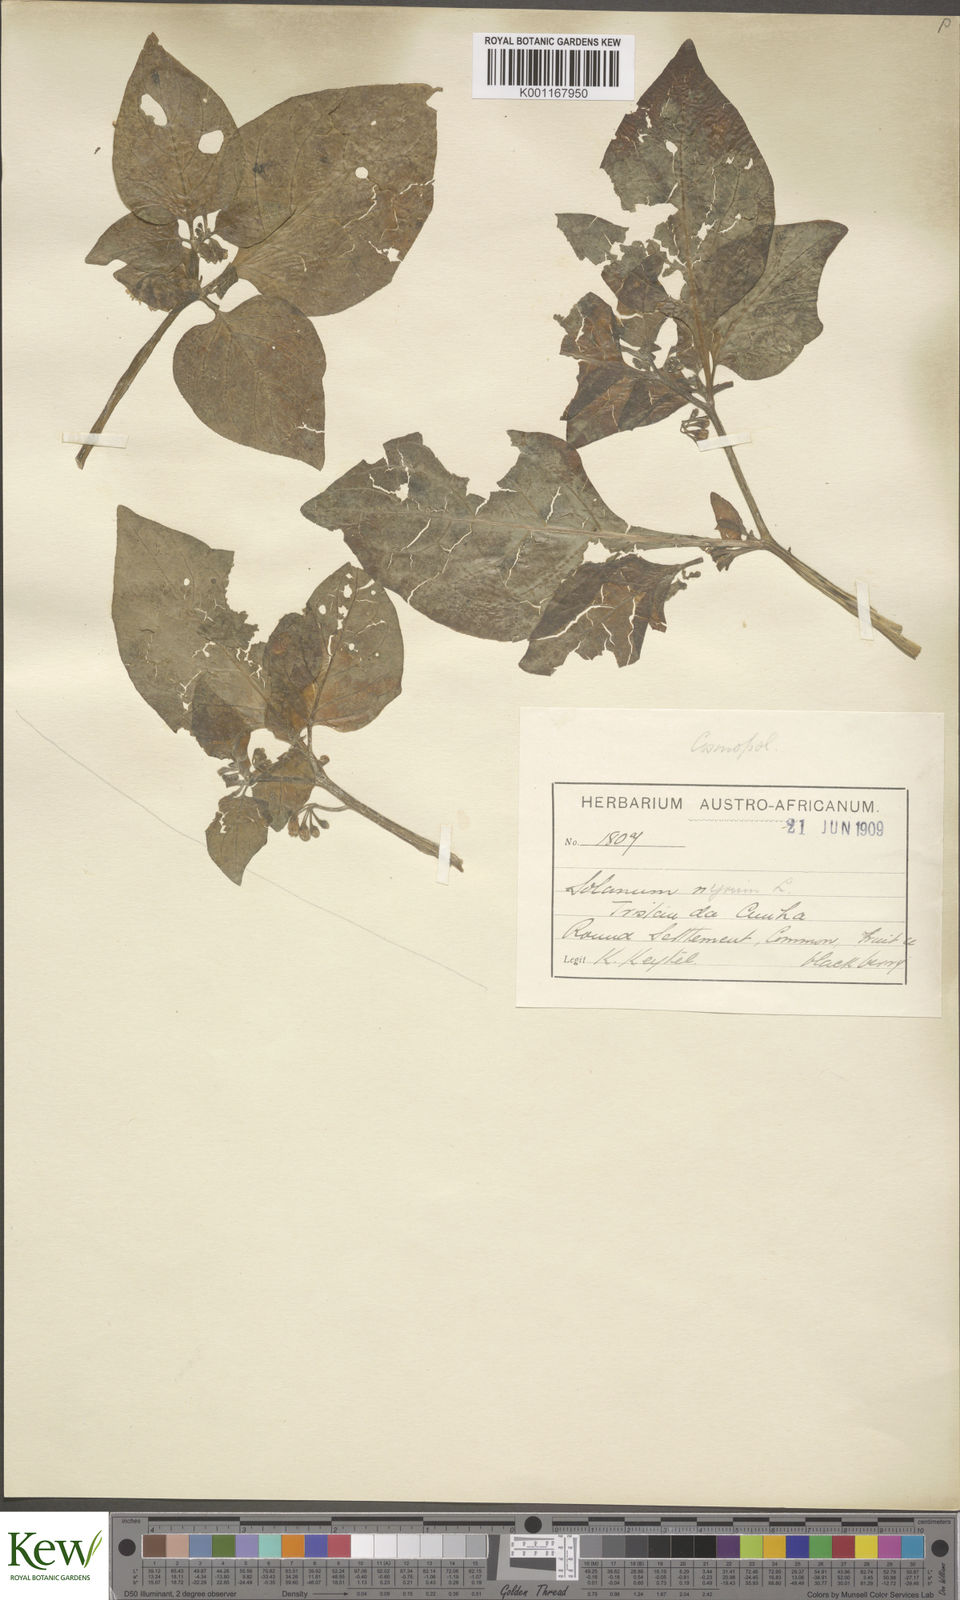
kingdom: Plantae
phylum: Tracheophyta
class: Magnoliopsida
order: Solanales
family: Solanaceae
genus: Solanum
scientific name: Solanum scabrum
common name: Garden-huckleberry
